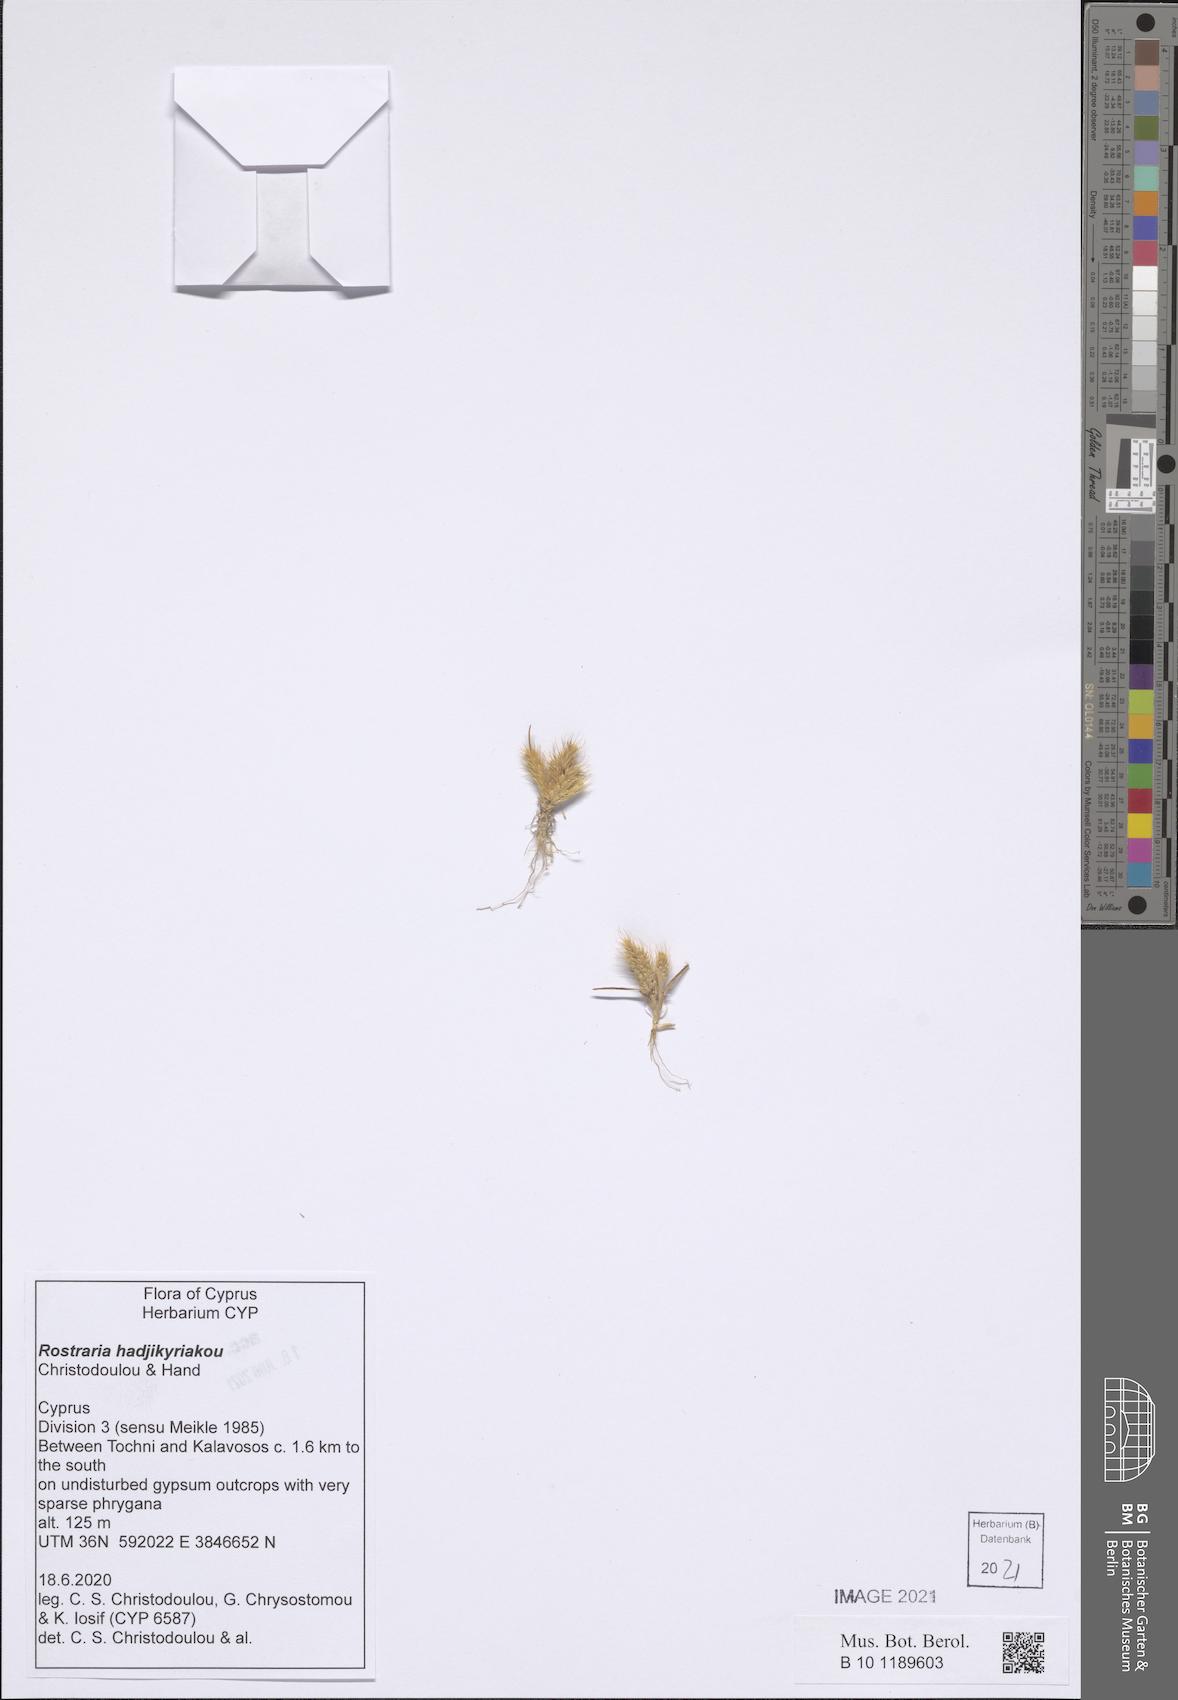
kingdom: Plantae
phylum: Tracheophyta
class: Liliopsida
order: Poales
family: Poaceae
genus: Rostraria
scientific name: Rostraria
